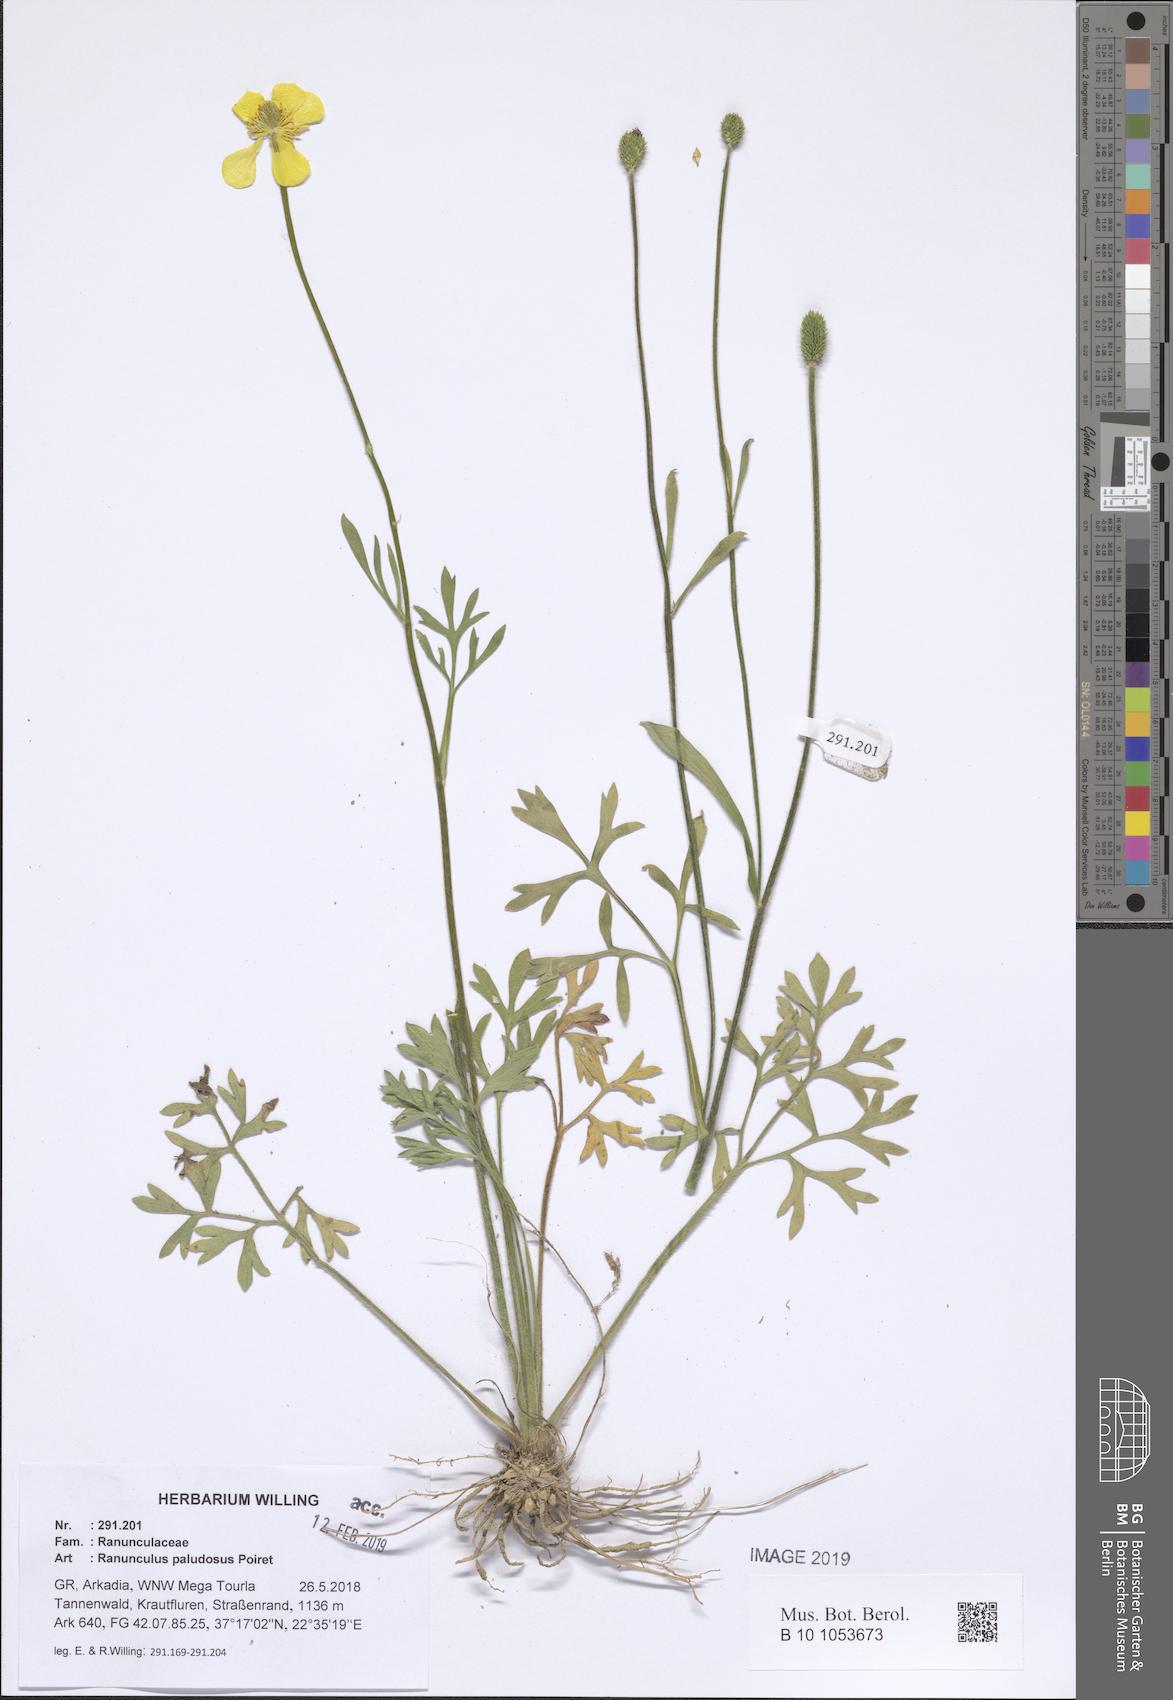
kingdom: Plantae
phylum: Tracheophyta
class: Magnoliopsida
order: Ranunculales
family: Ranunculaceae
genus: Ranunculus
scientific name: Ranunculus paludosus
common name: Jersey buttercup
